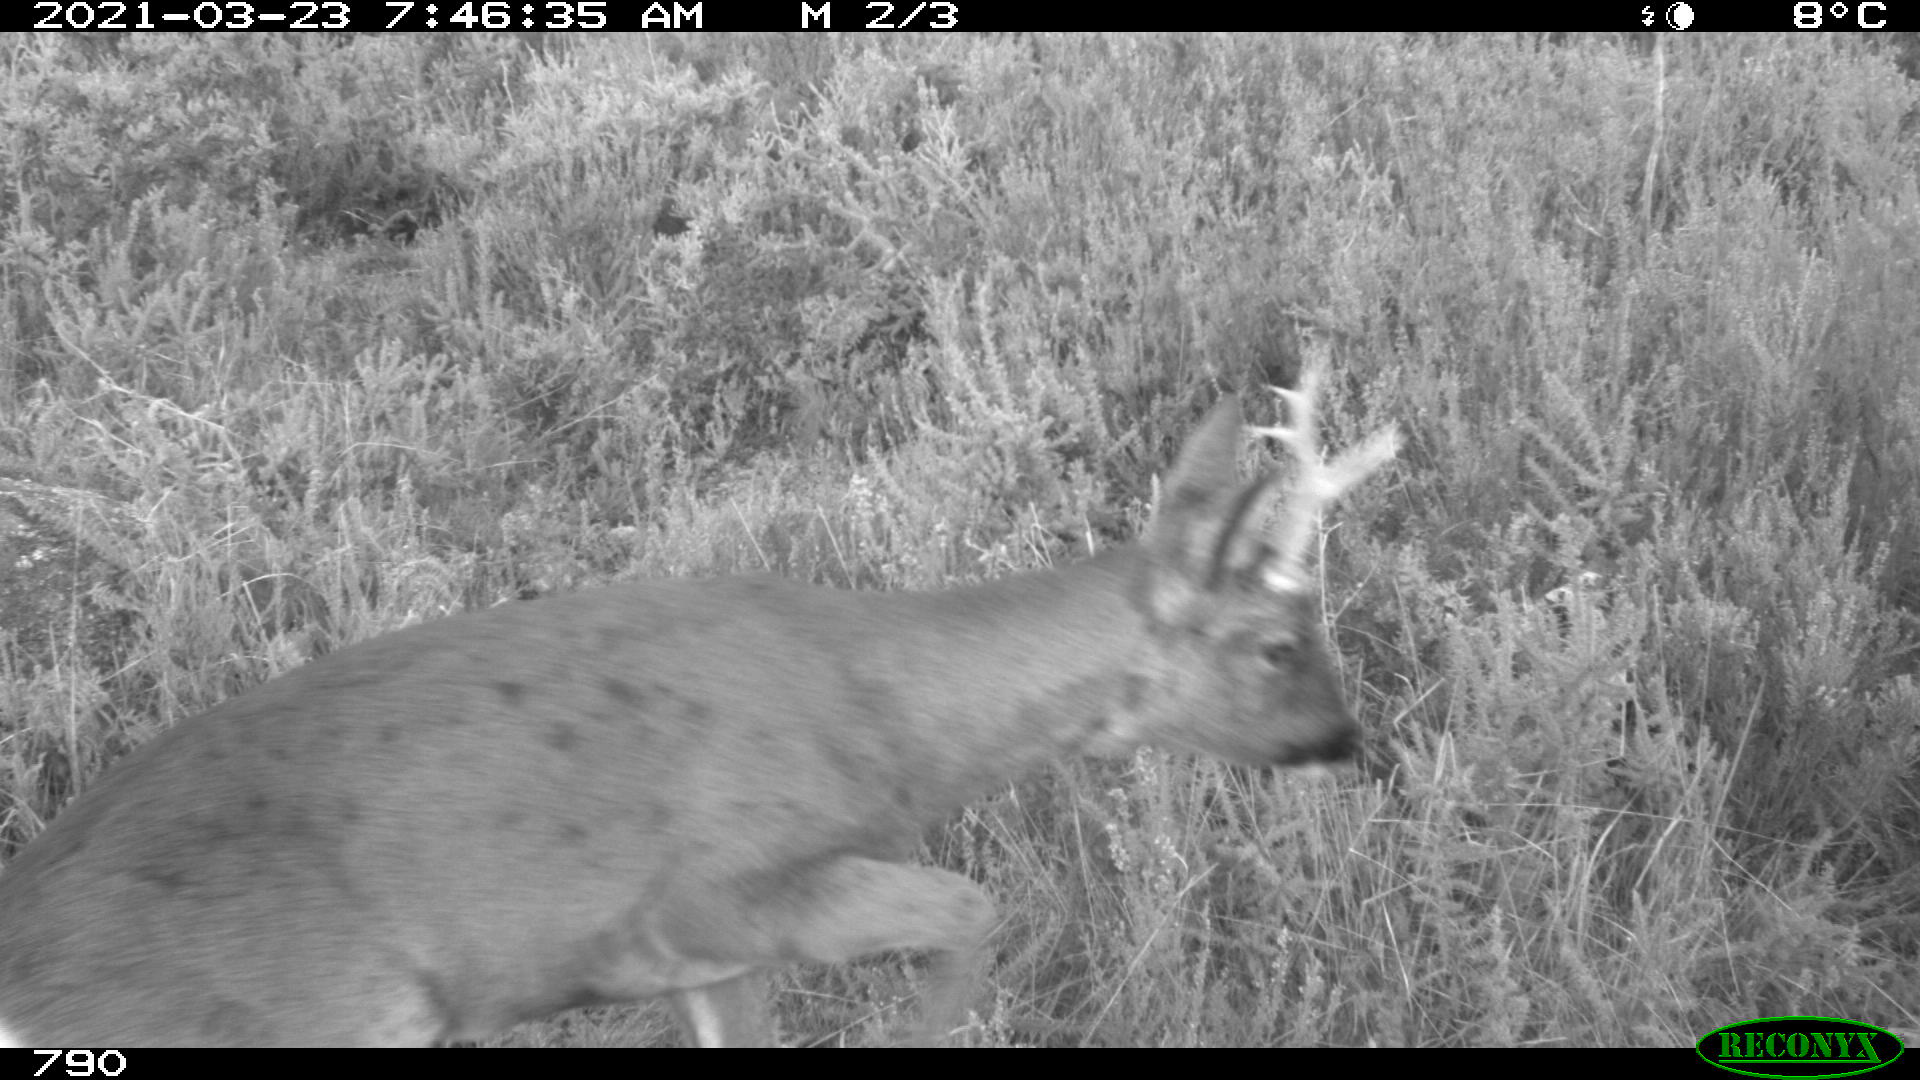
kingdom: Animalia
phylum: Chordata
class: Mammalia
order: Artiodactyla
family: Cervidae
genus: Capreolus
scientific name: Capreolus capreolus
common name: Western roe deer
